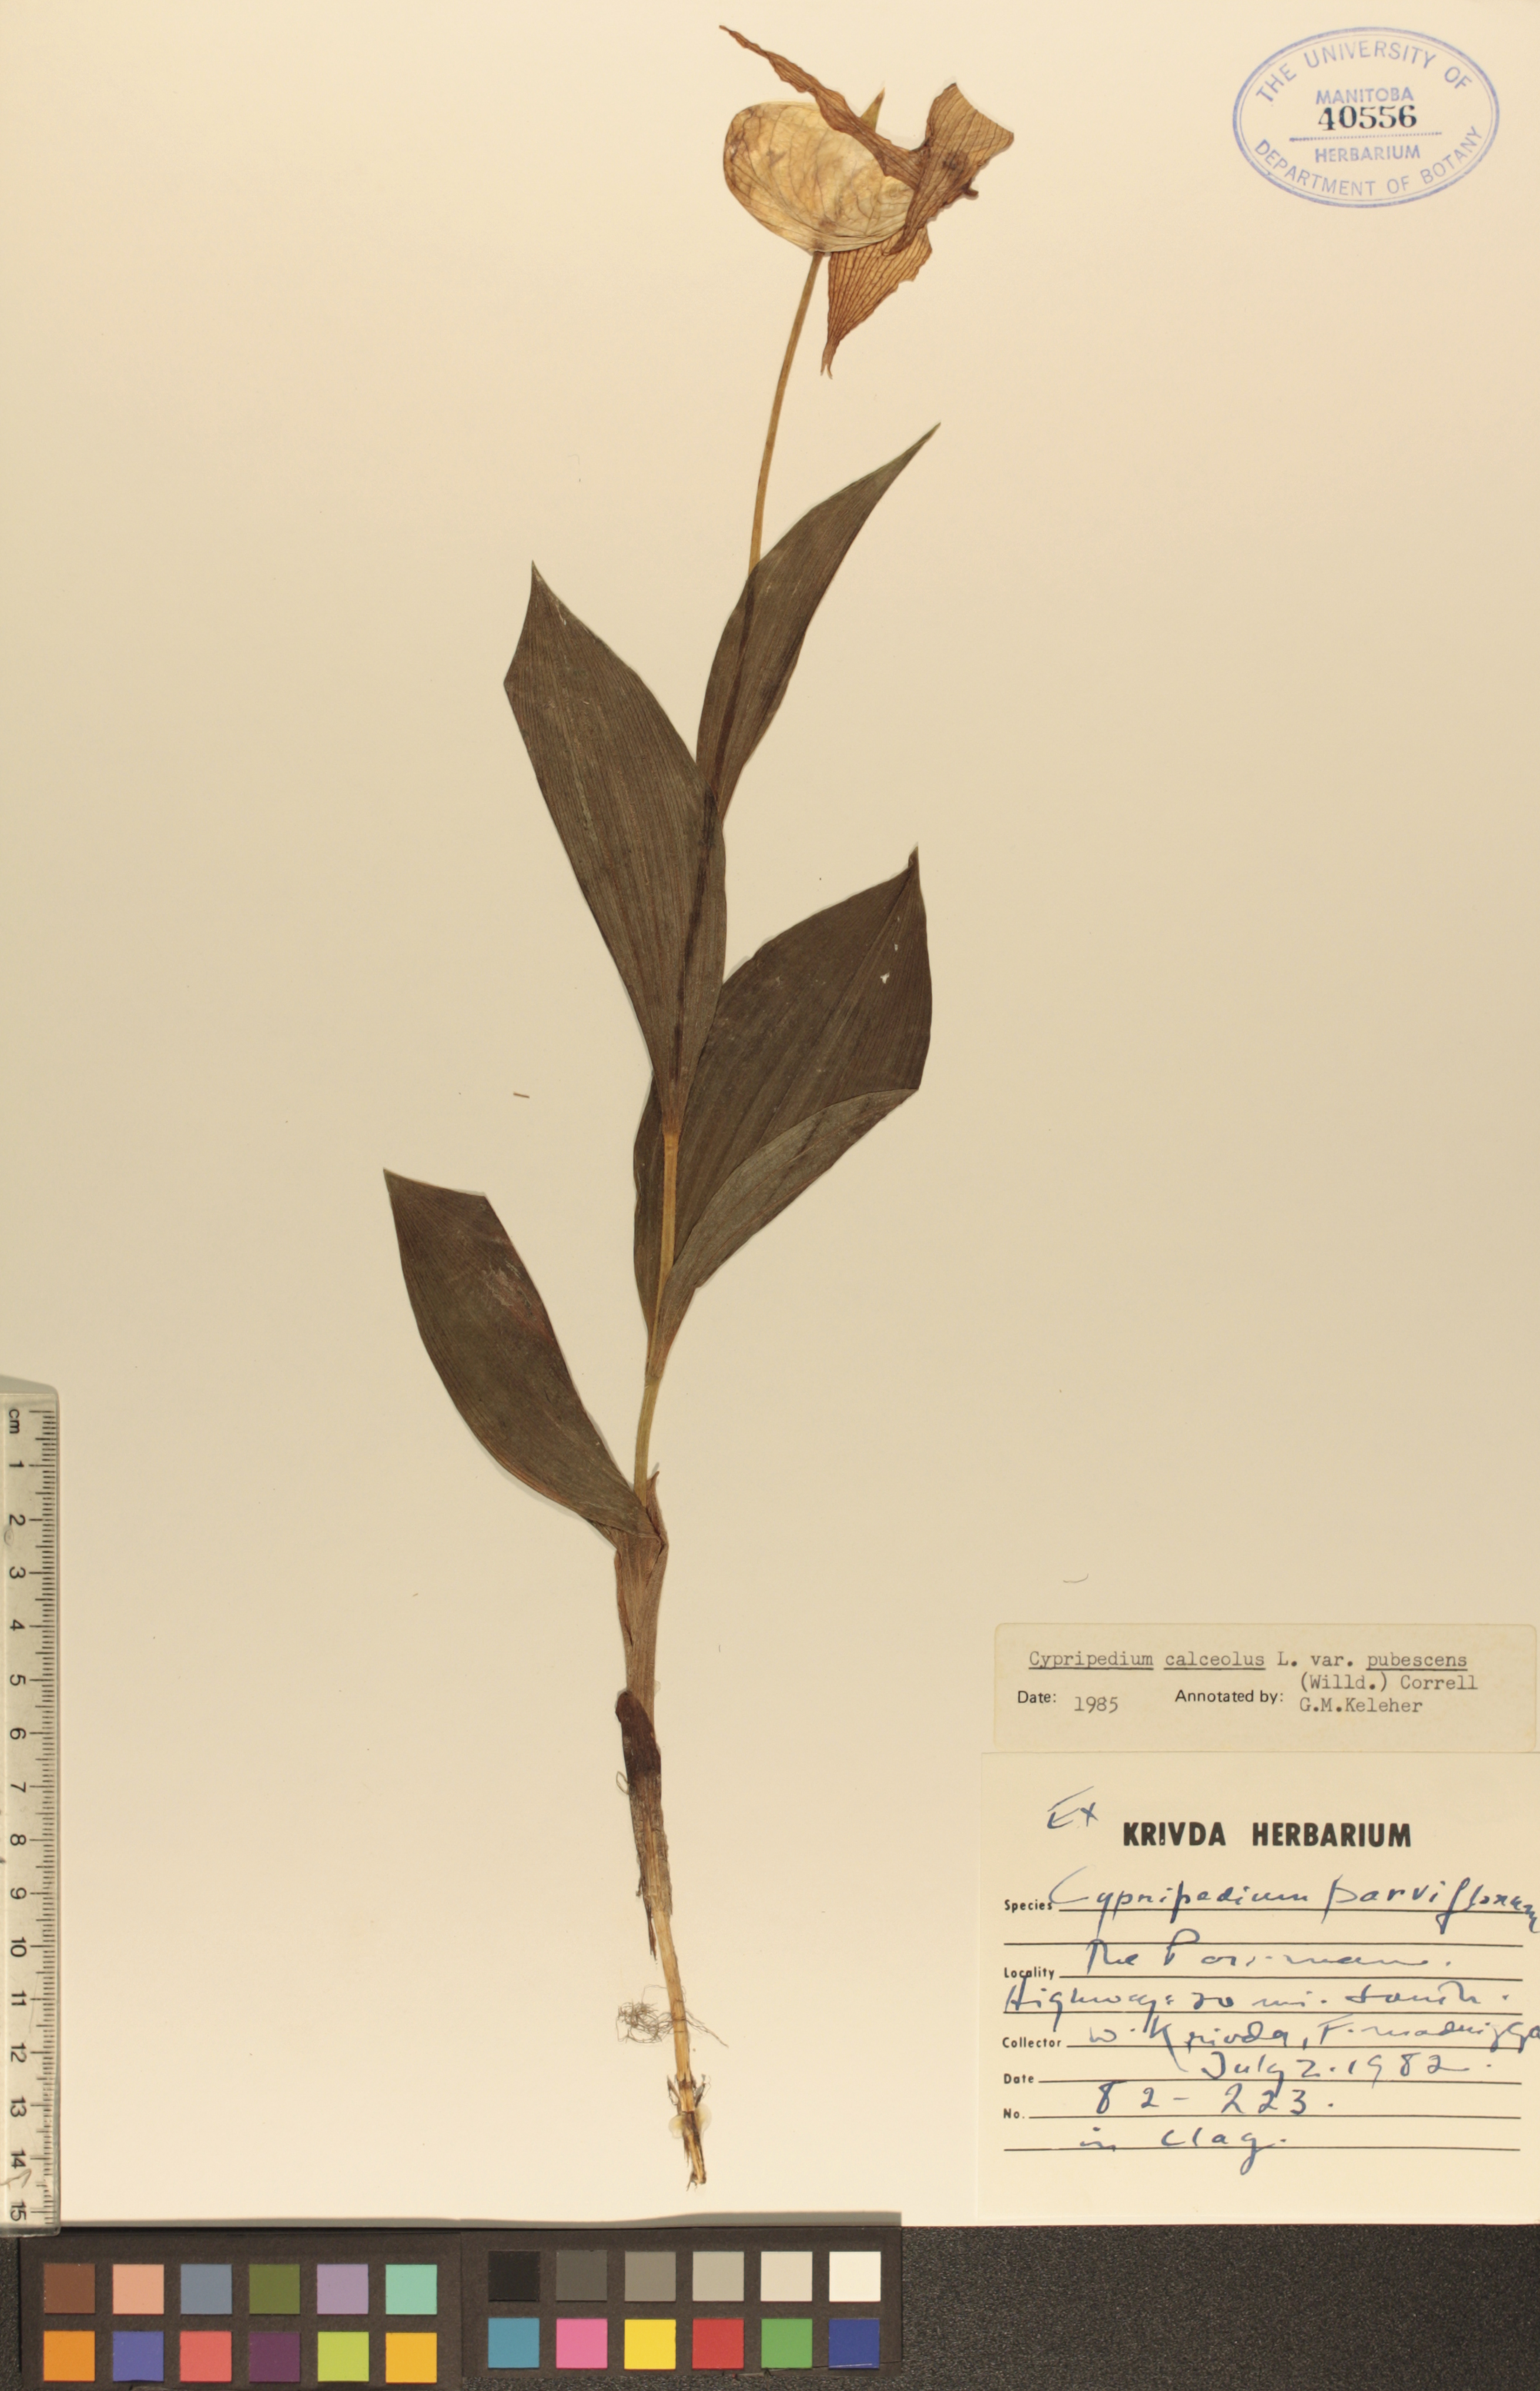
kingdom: Plantae
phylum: Tracheophyta
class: Liliopsida
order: Asparagales
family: Orchidaceae
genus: Cypripedium
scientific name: Cypripedium parviflorum
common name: American yellow lady's-slipper
